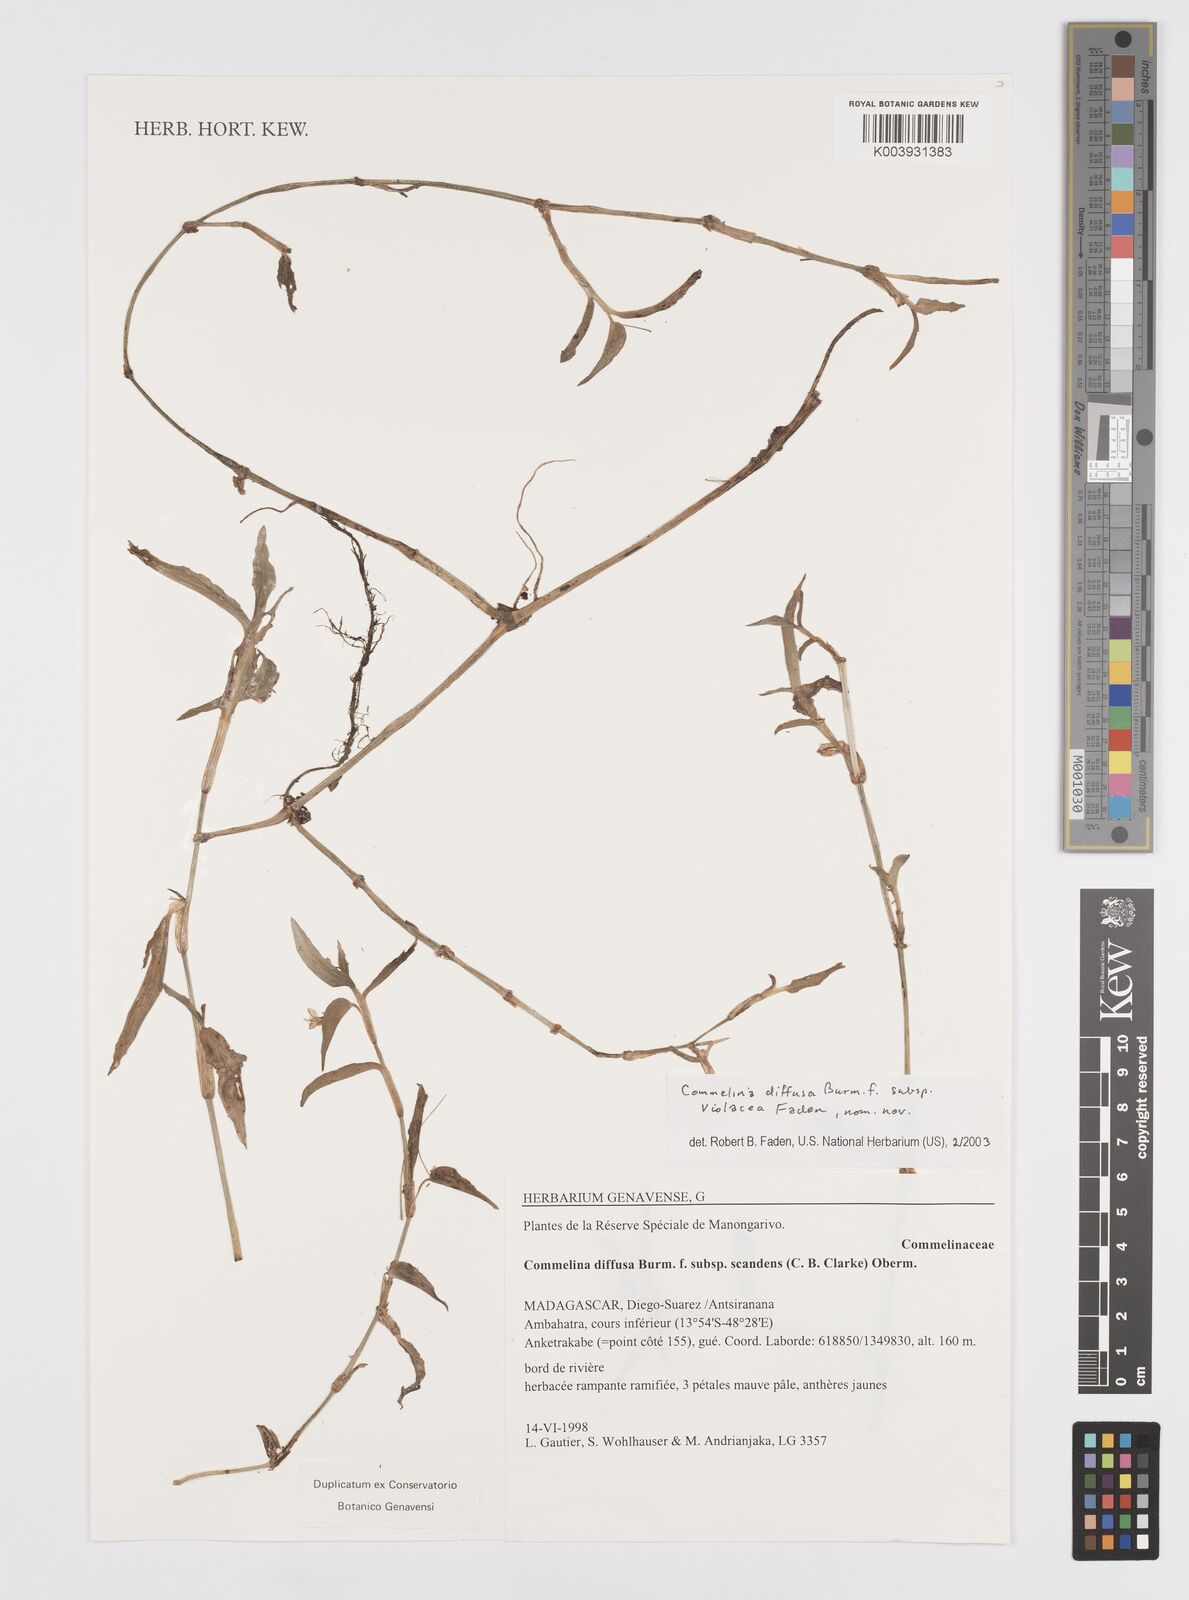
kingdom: Plantae
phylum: Tracheophyta
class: Liliopsida
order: Commelinales
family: Commelinaceae
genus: Commelina
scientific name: Commelina diffusa
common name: Climbing dayflower
